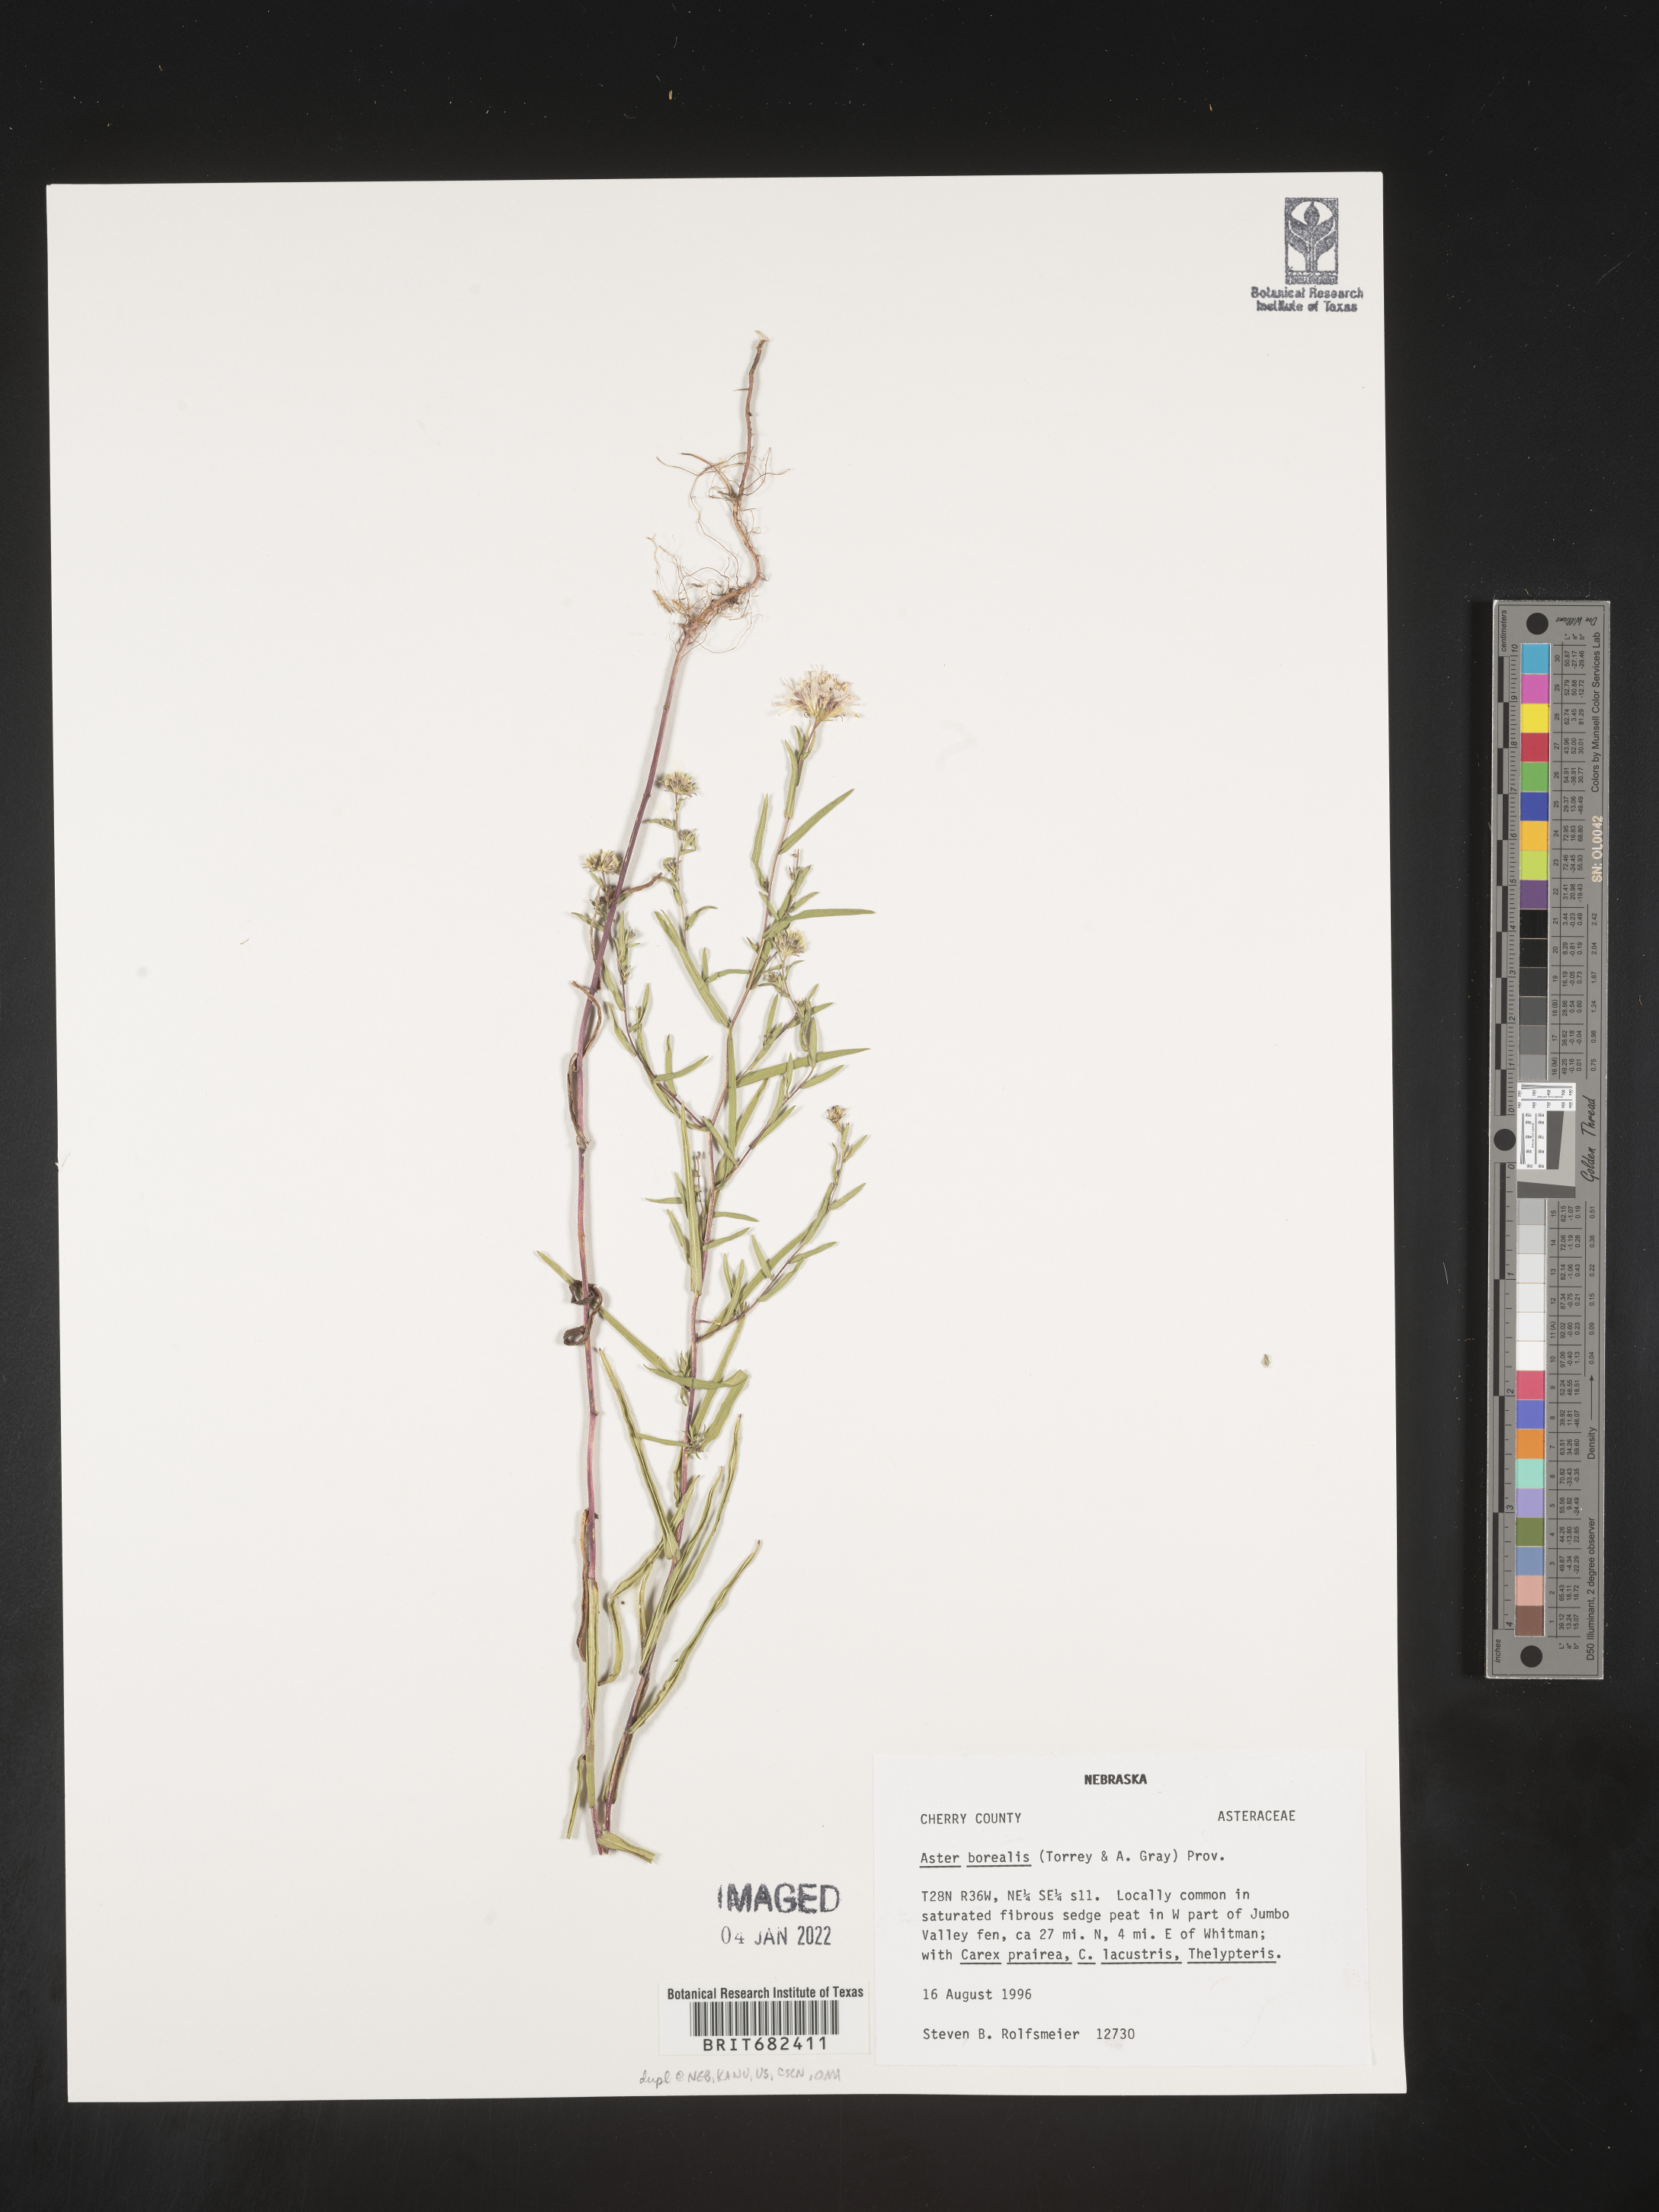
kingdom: Plantae
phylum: Tracheophyta
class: Magnoliopsida
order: Asterales
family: Asteraceae
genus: Aster
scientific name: Aster
